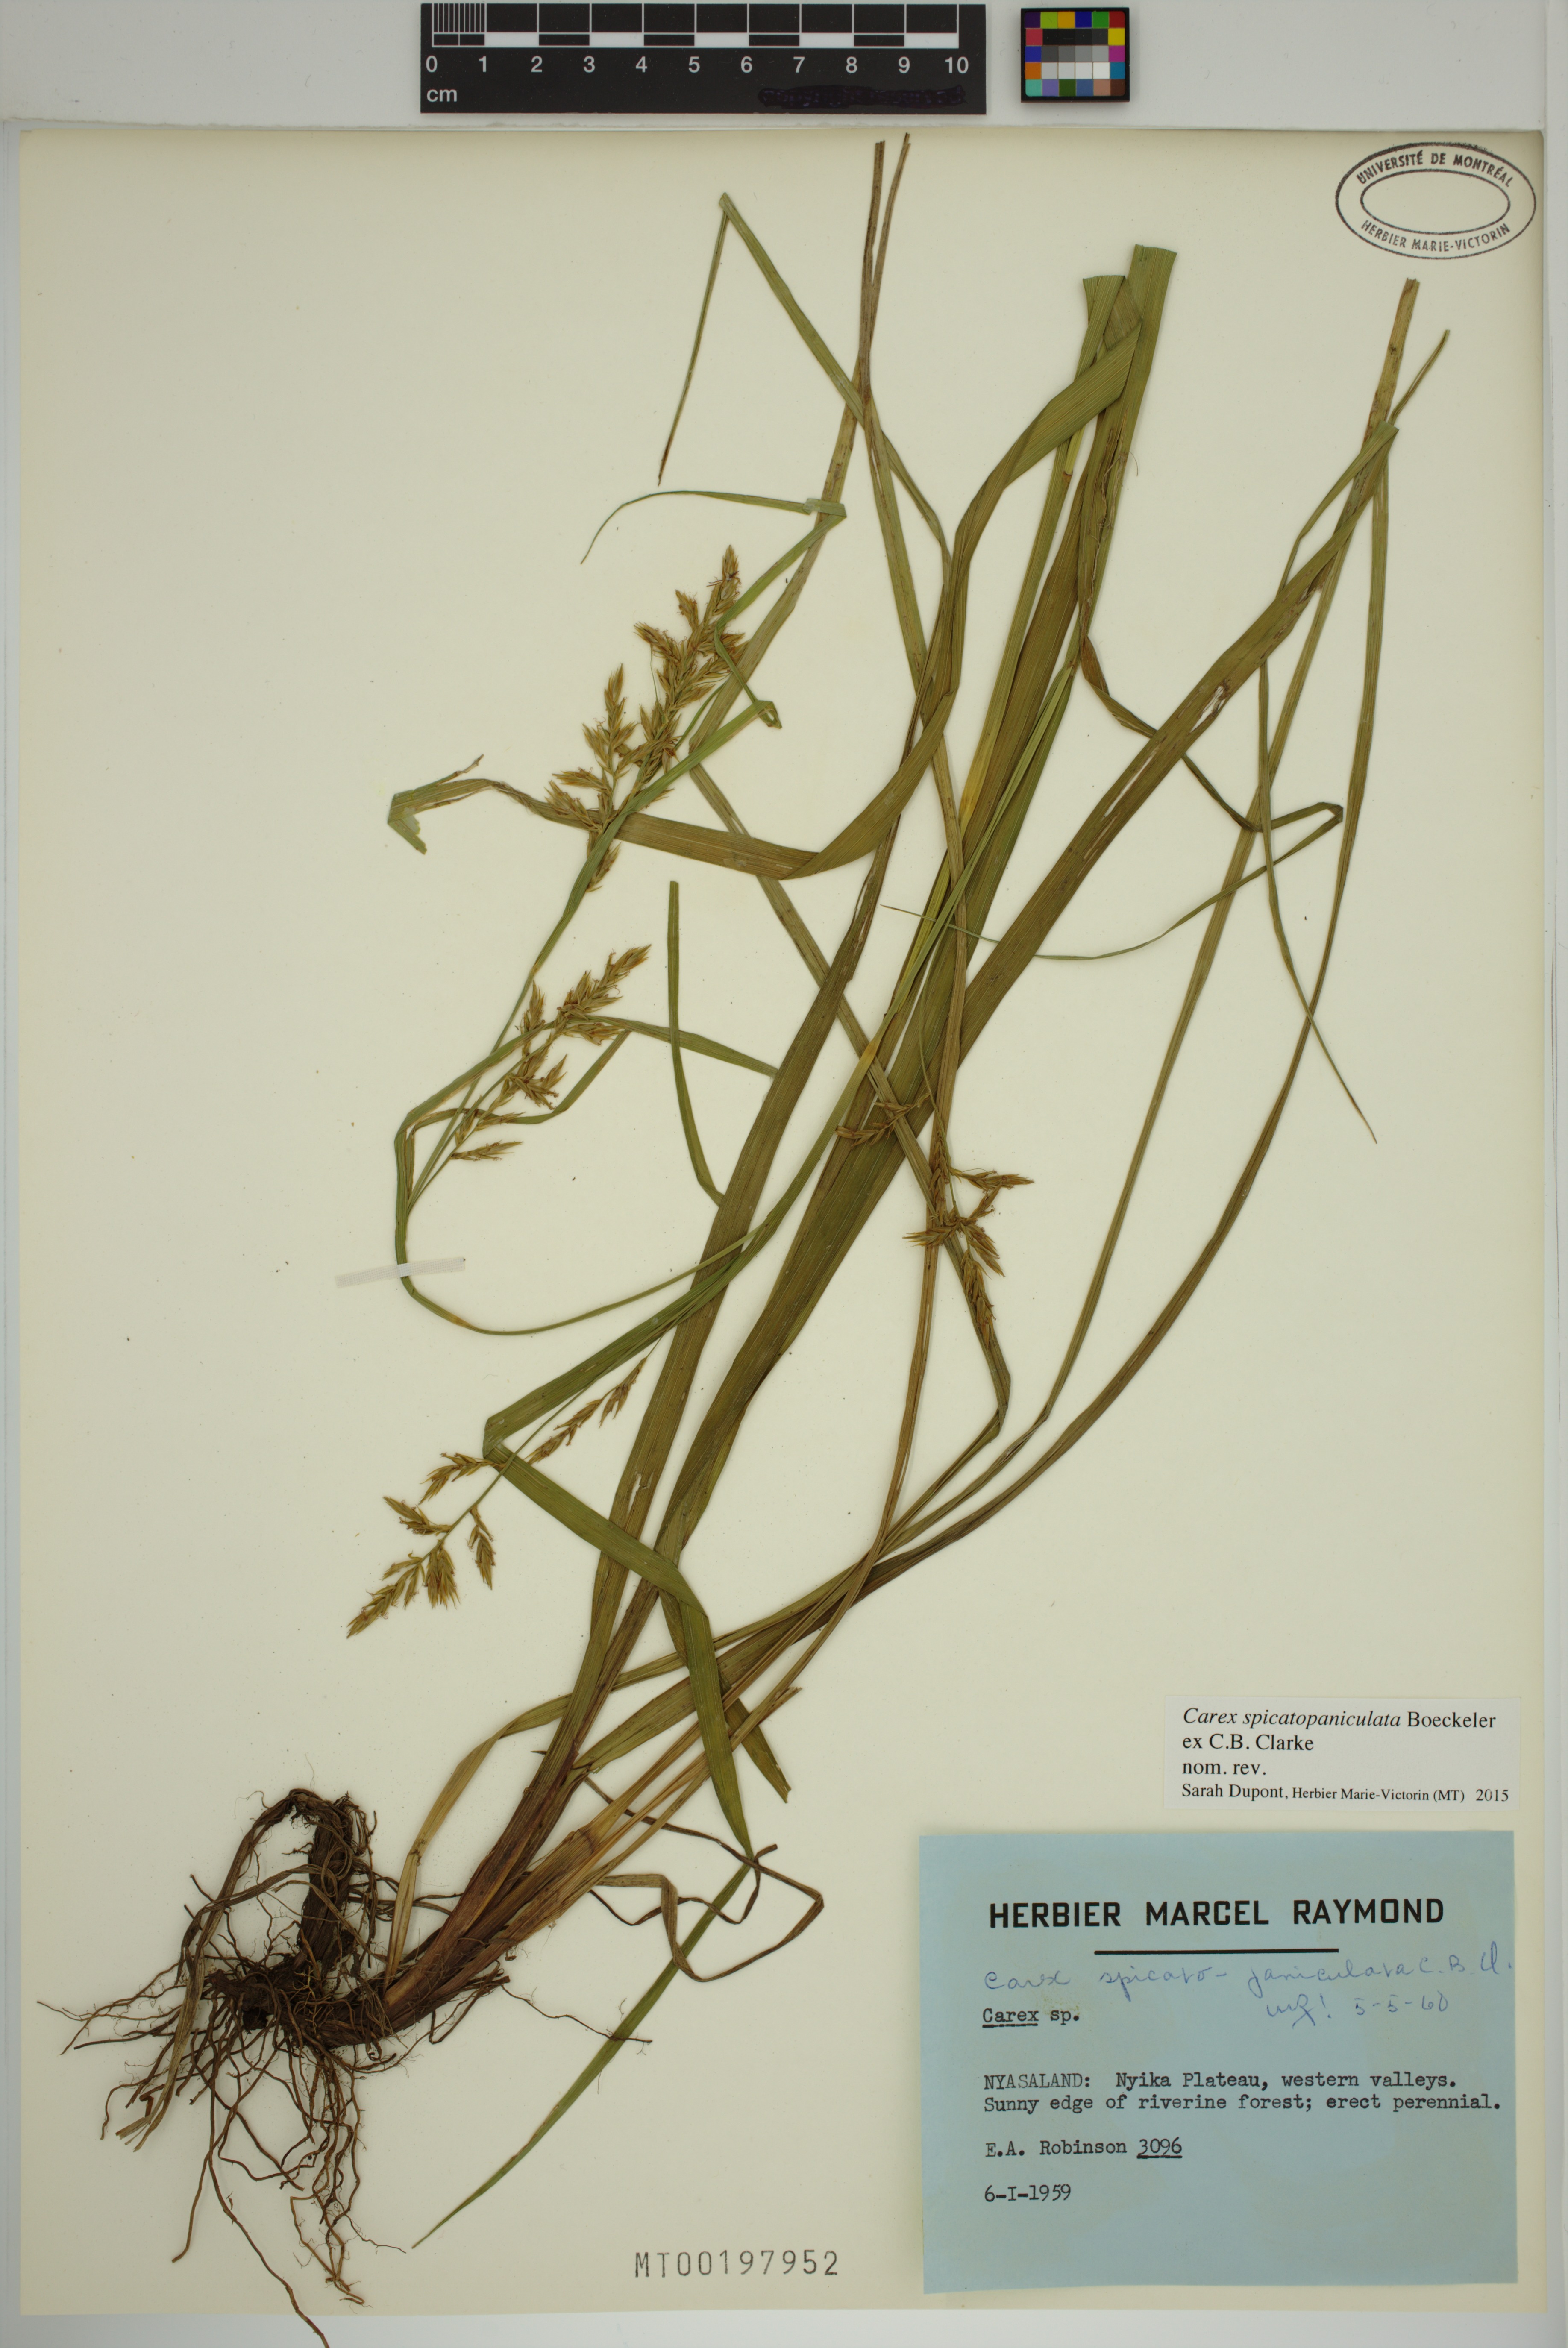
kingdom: Plantae
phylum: Tracheophyta
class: Liliopsida
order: Poales
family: Cyperaceae
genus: Carex
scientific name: Carex spicatopaniculata
